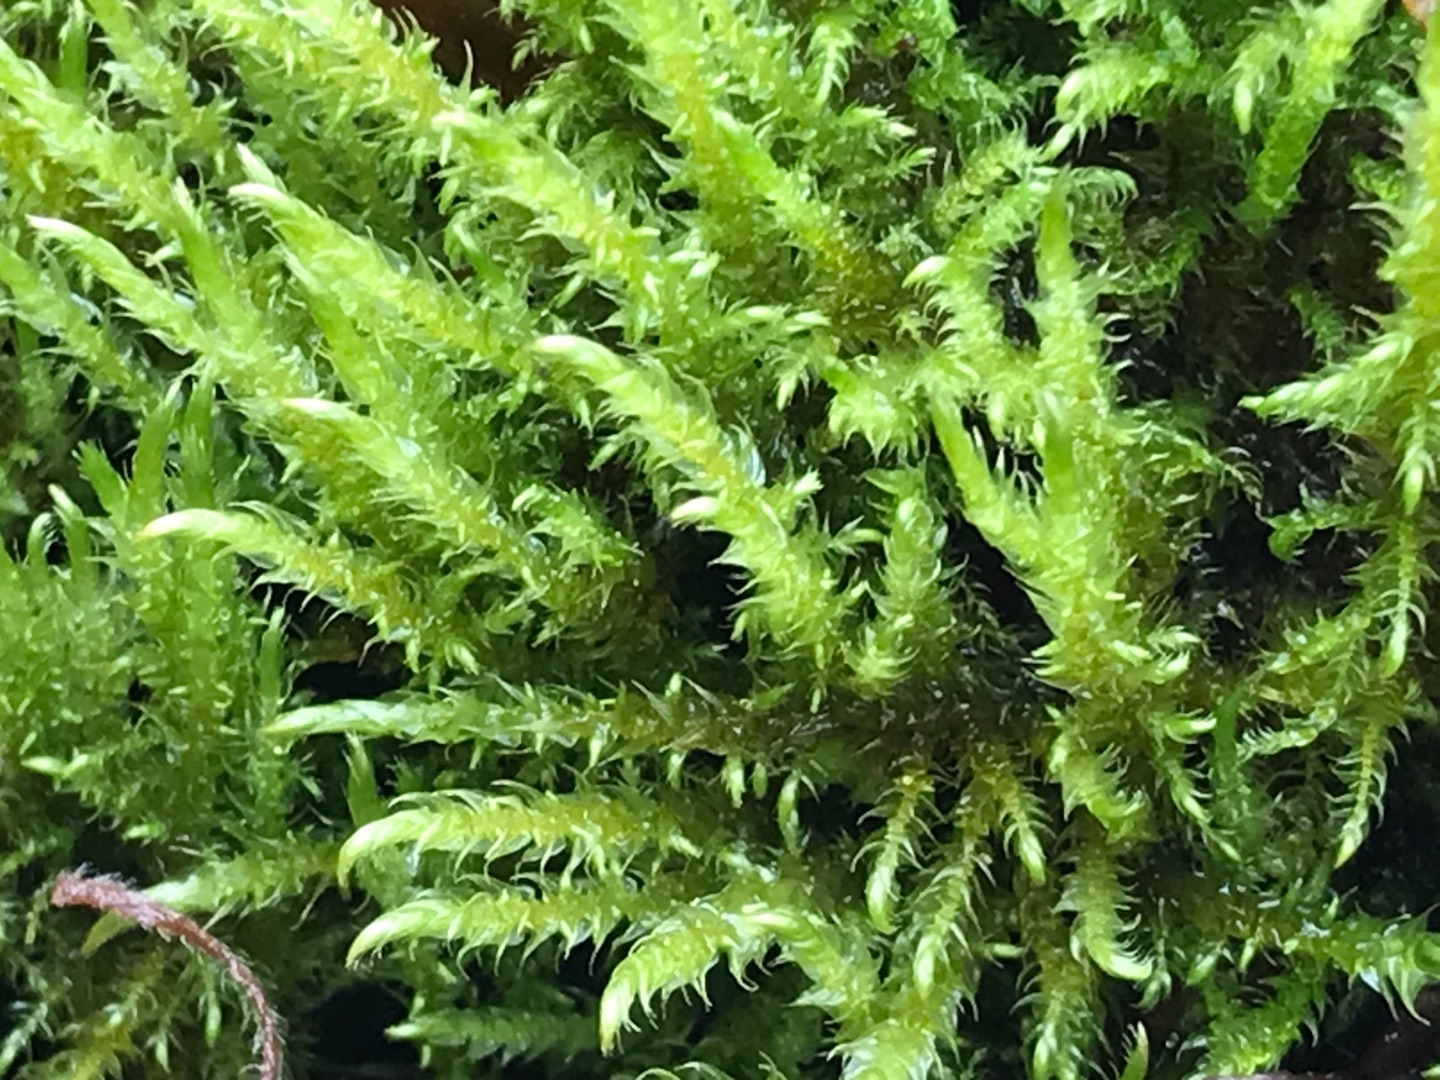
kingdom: Plantae
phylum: Bryophyta
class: Bryopsida
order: Hypnales
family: Amblystegiaceae
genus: Cratoneuron
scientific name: Cratoneuron filicinum
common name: Grøn eremitmos
